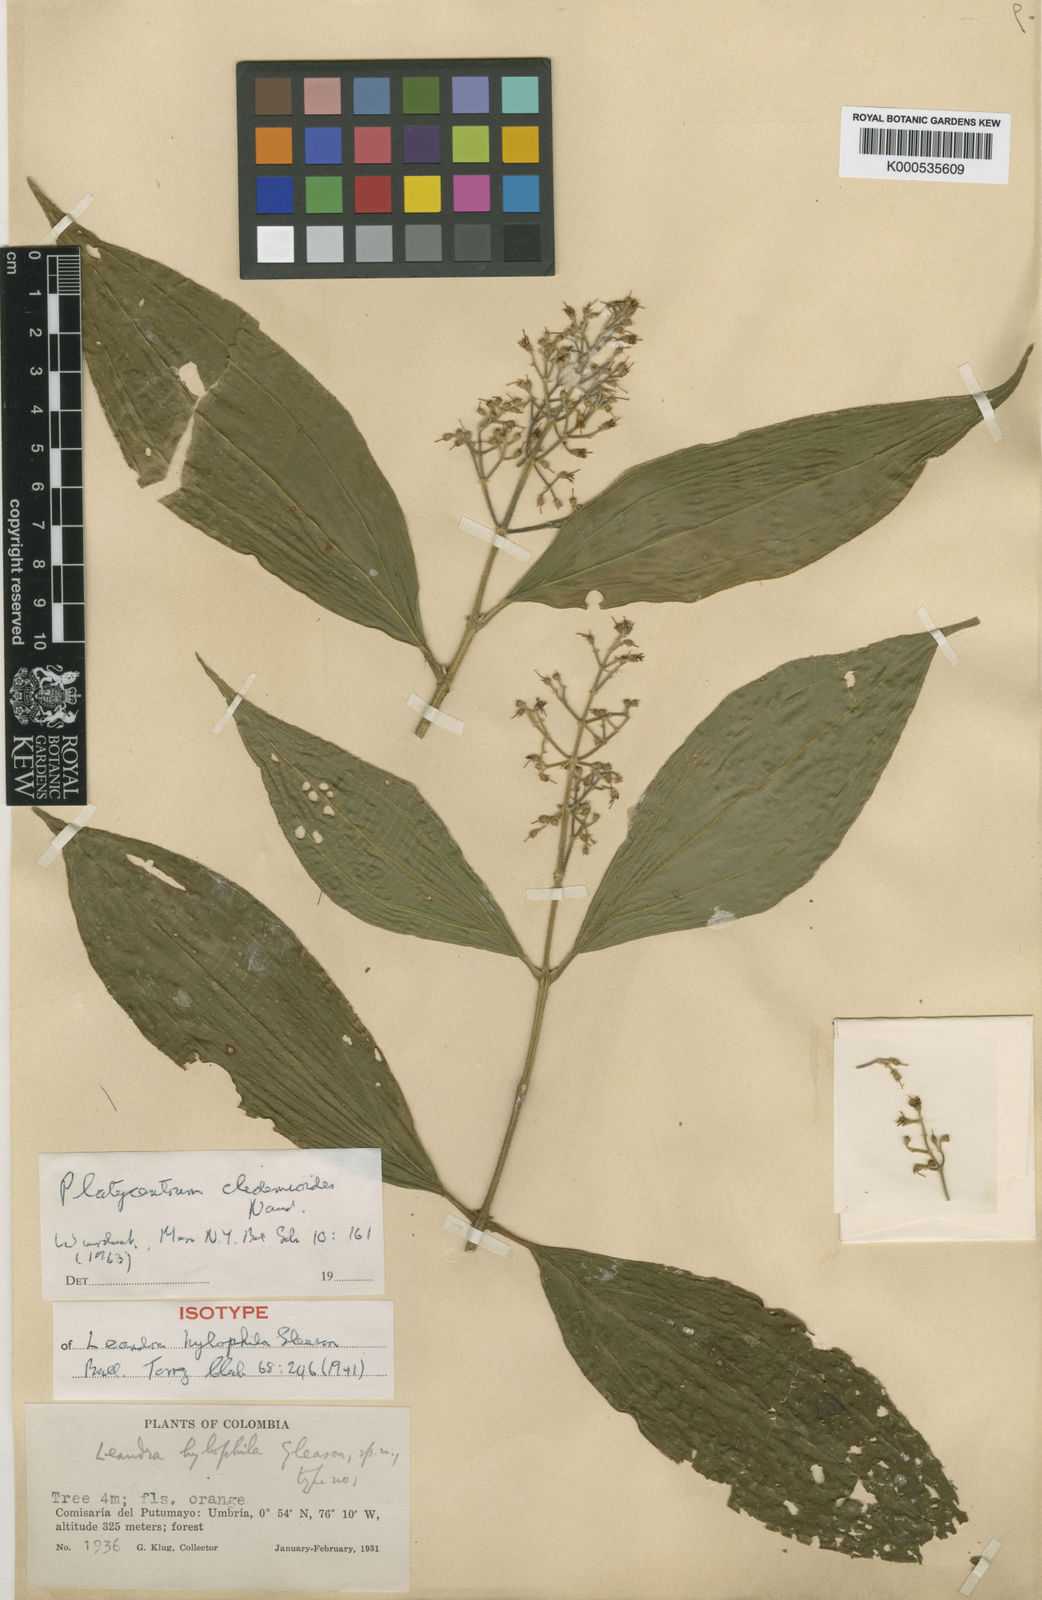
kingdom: Plantae
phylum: Tracheophyta
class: Magnoliopsida
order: Myrtales
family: Melastomataceae
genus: Miconia
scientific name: Miconia stenopetala
